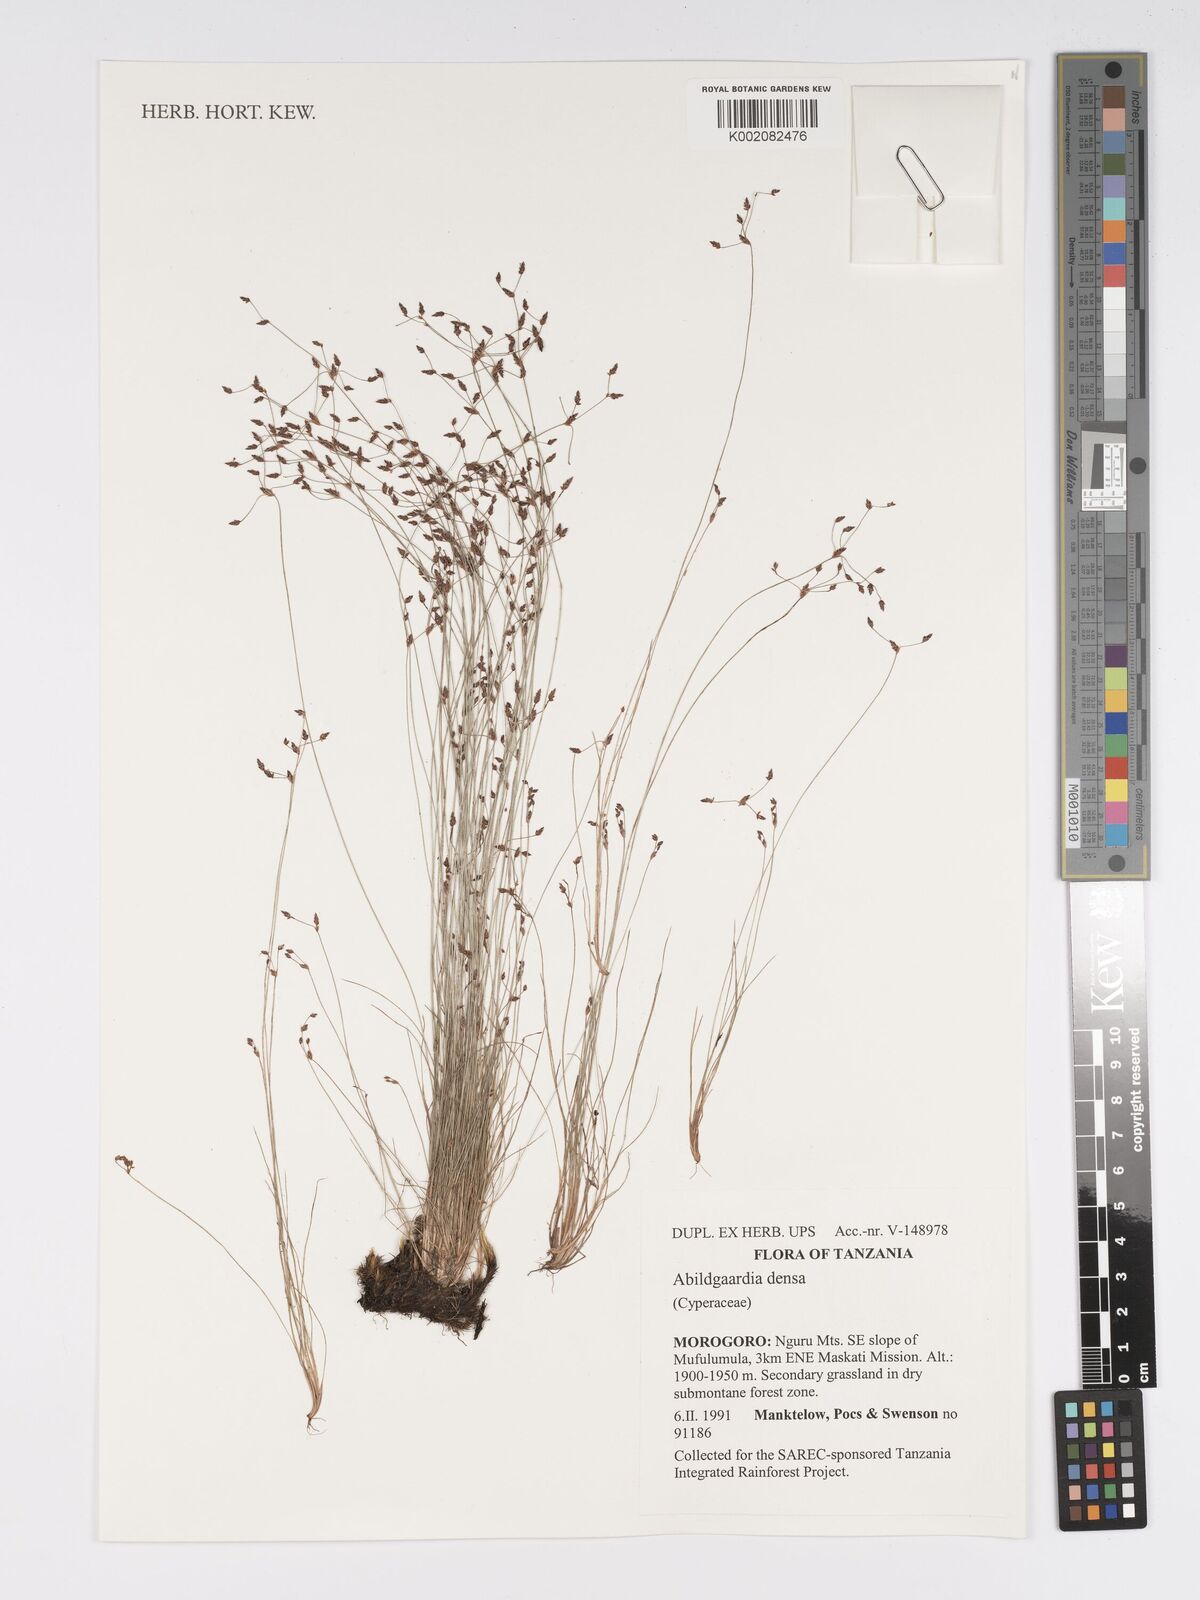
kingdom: Plantae
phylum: Tracheophyta
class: Liliopsida
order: Poales
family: Cyperaceae
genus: Bulbostylis
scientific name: Bulbostylis densa
